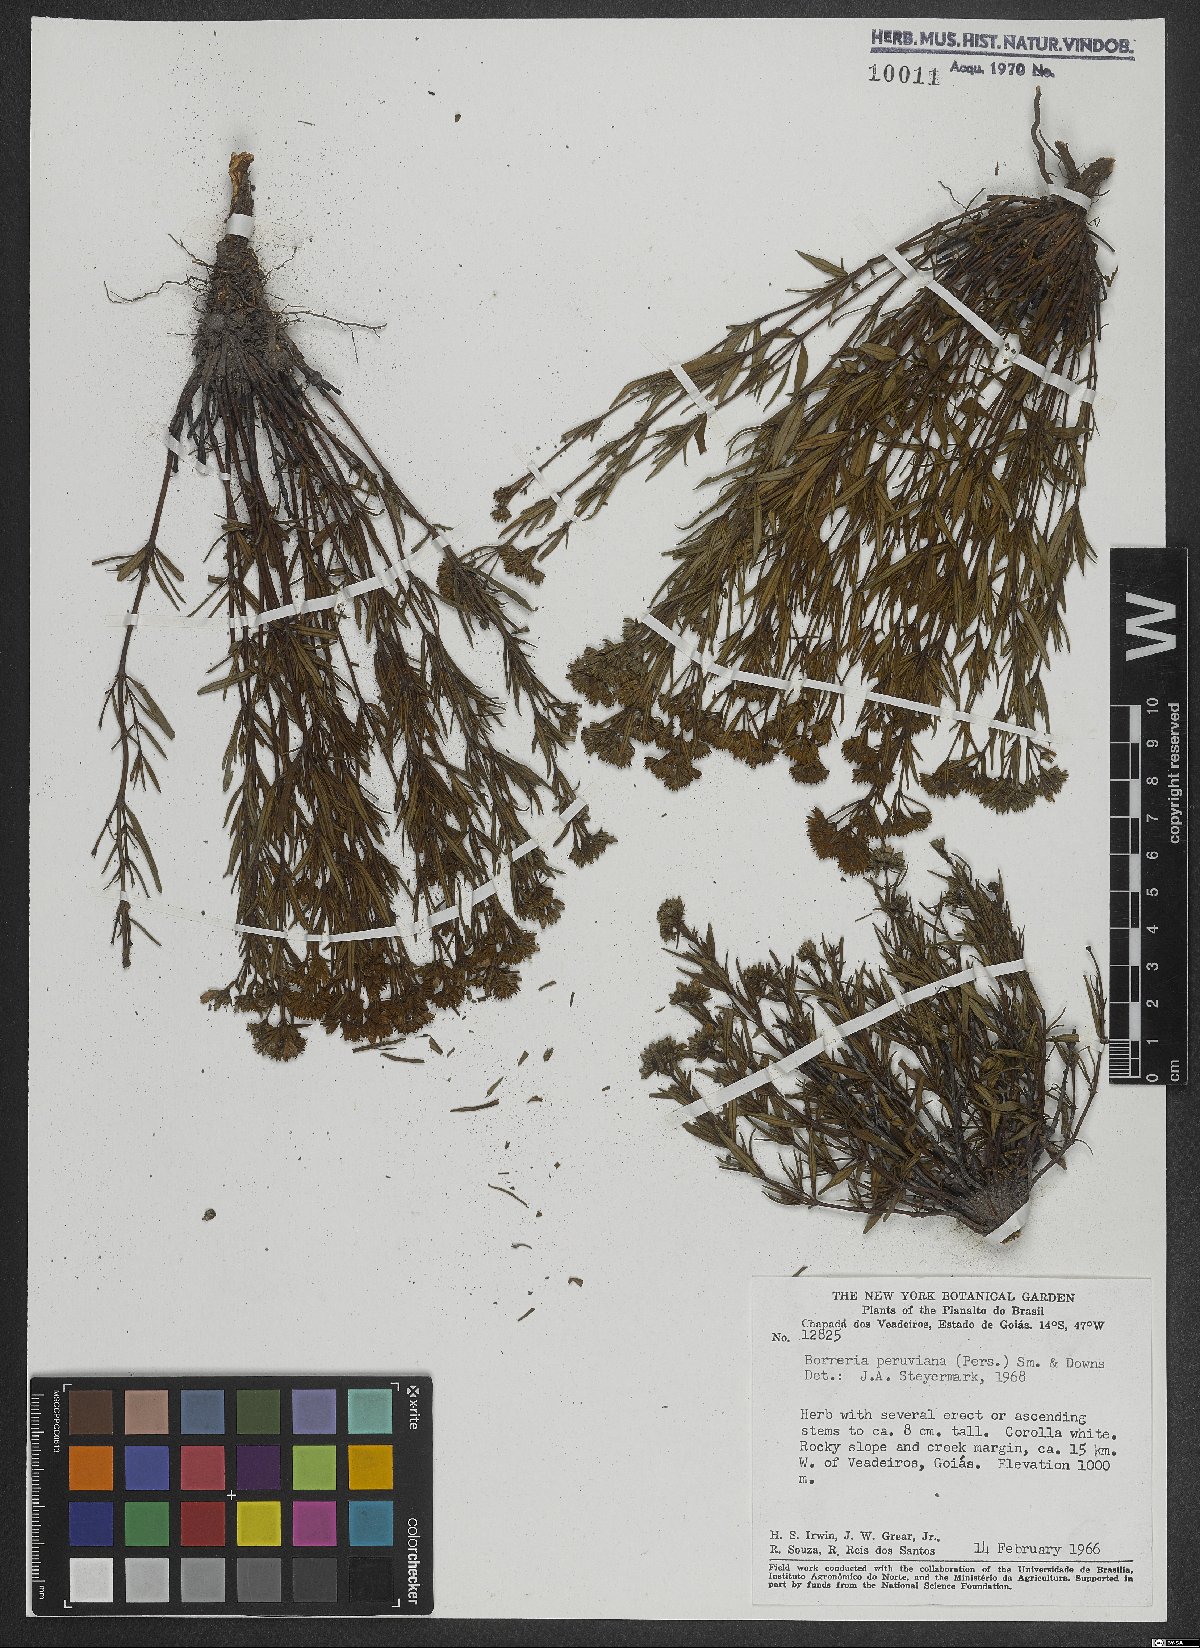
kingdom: Plantae
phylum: Tracheophyta
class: Magnoliopsida
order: Gentianales
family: Rubiaceae
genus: Galianthe
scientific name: Galianthe peruviana
